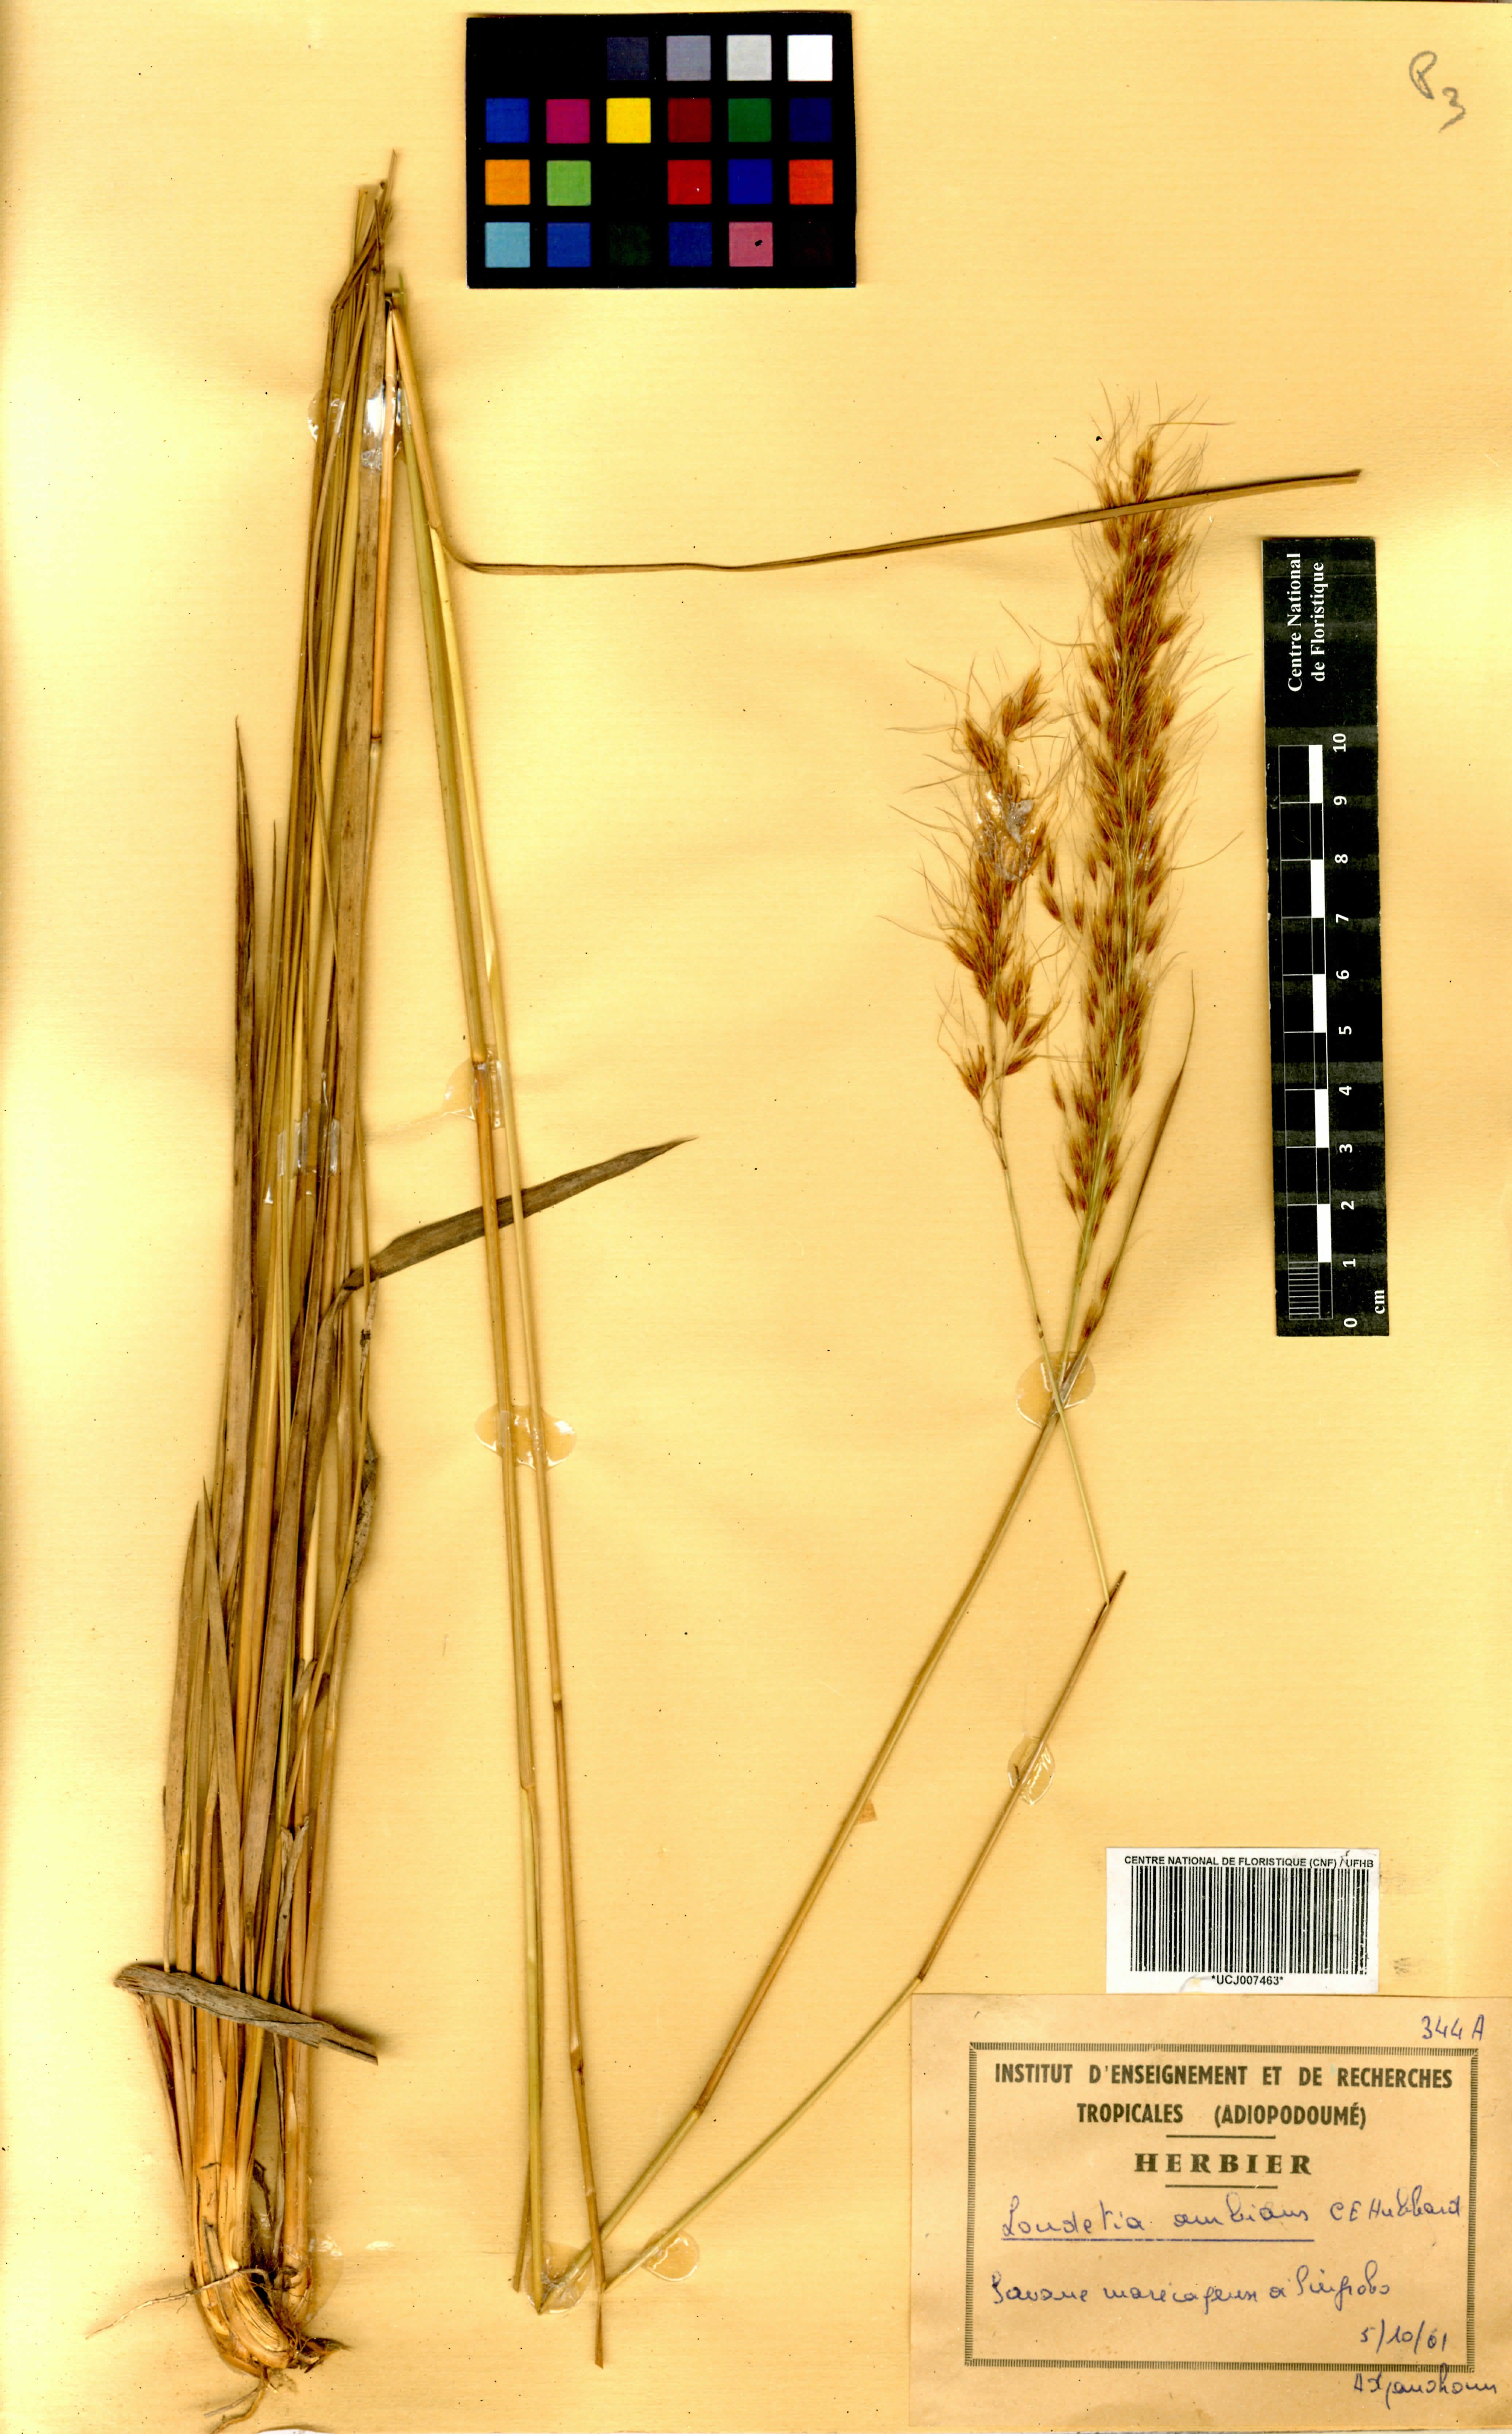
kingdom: Plantae
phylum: Tracheophyta
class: Liliopsida
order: Poales
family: Poaceae
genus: Loudetiopsis
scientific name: Loudetiopsis ambiens
